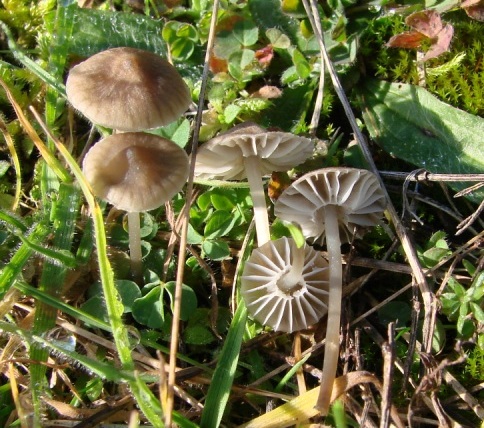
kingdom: Fungi
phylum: Basidiomycota
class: Agaricomycetes
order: Agaricales
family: Mycenaceae
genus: Mycena
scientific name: Mycena pseudopicta
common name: overdrevs-huesvamp
